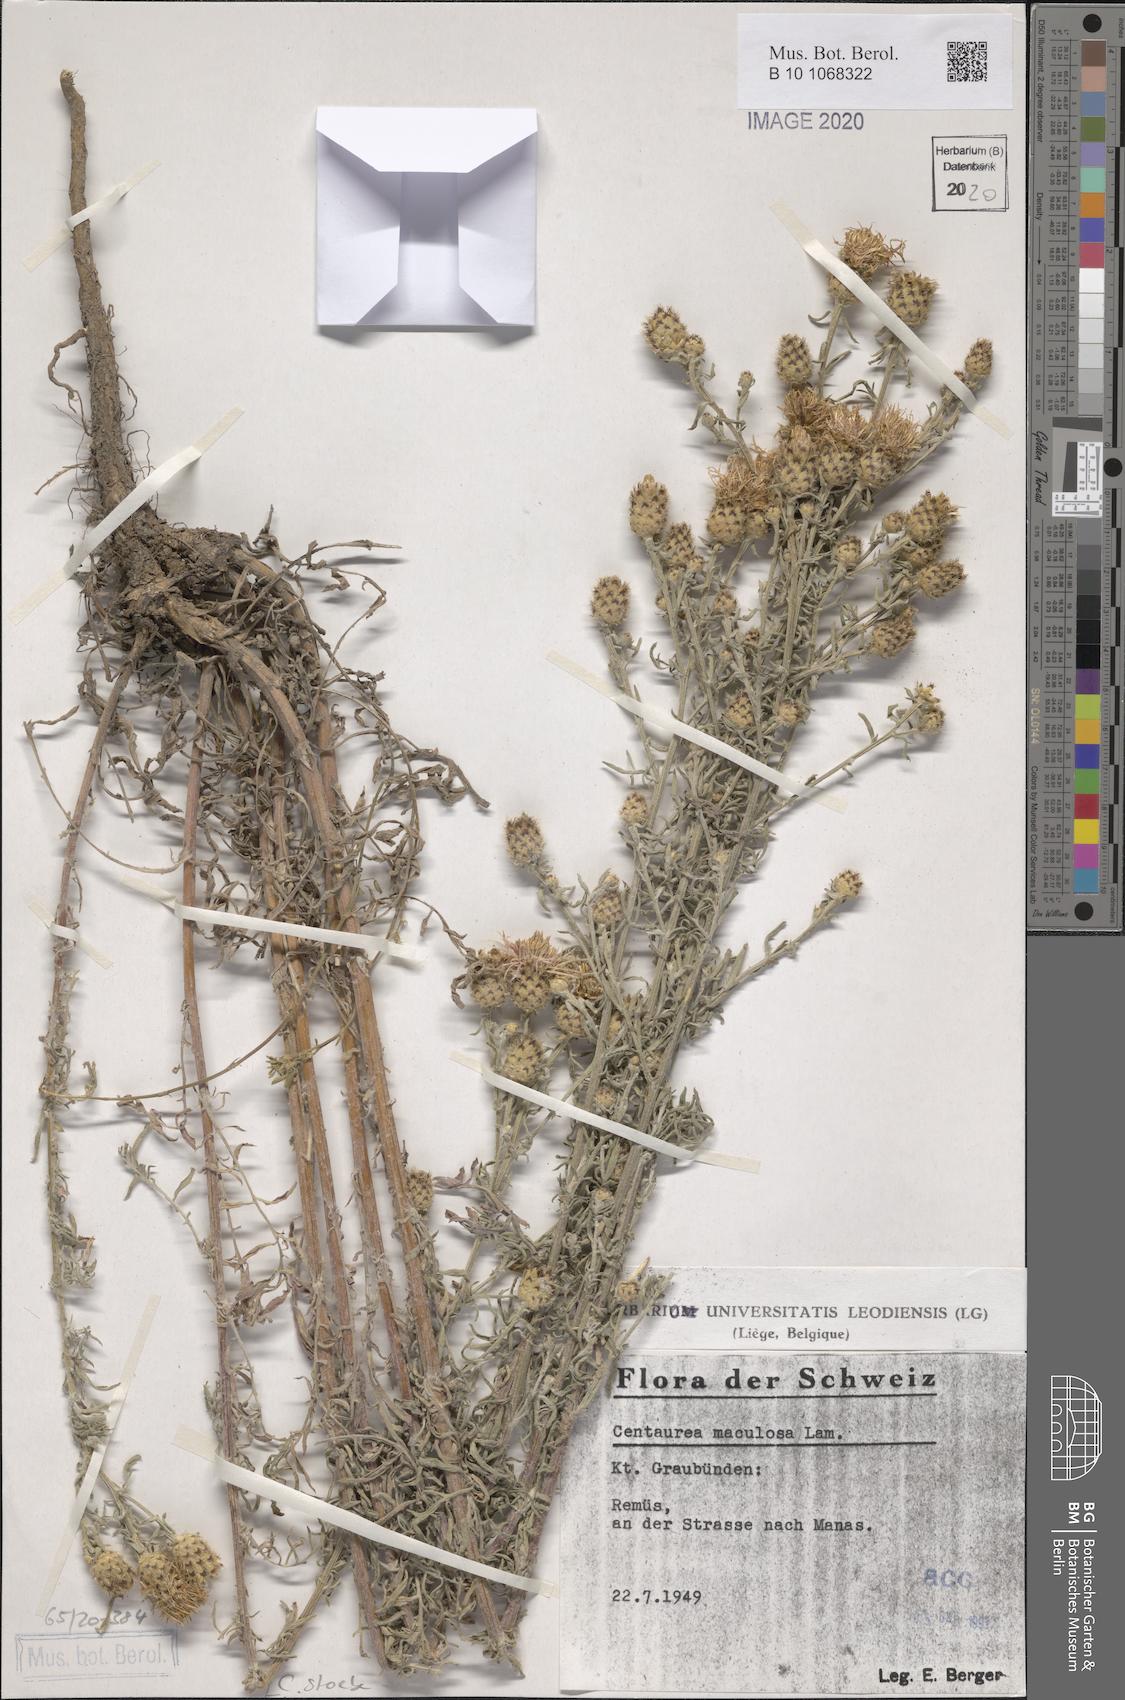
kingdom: Plantae
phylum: Tracheophyta
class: Magnoliopsida
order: Asterales
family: Asteraceae
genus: Centaurea
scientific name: Centaurea stoebe
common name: Spotted knapweed
